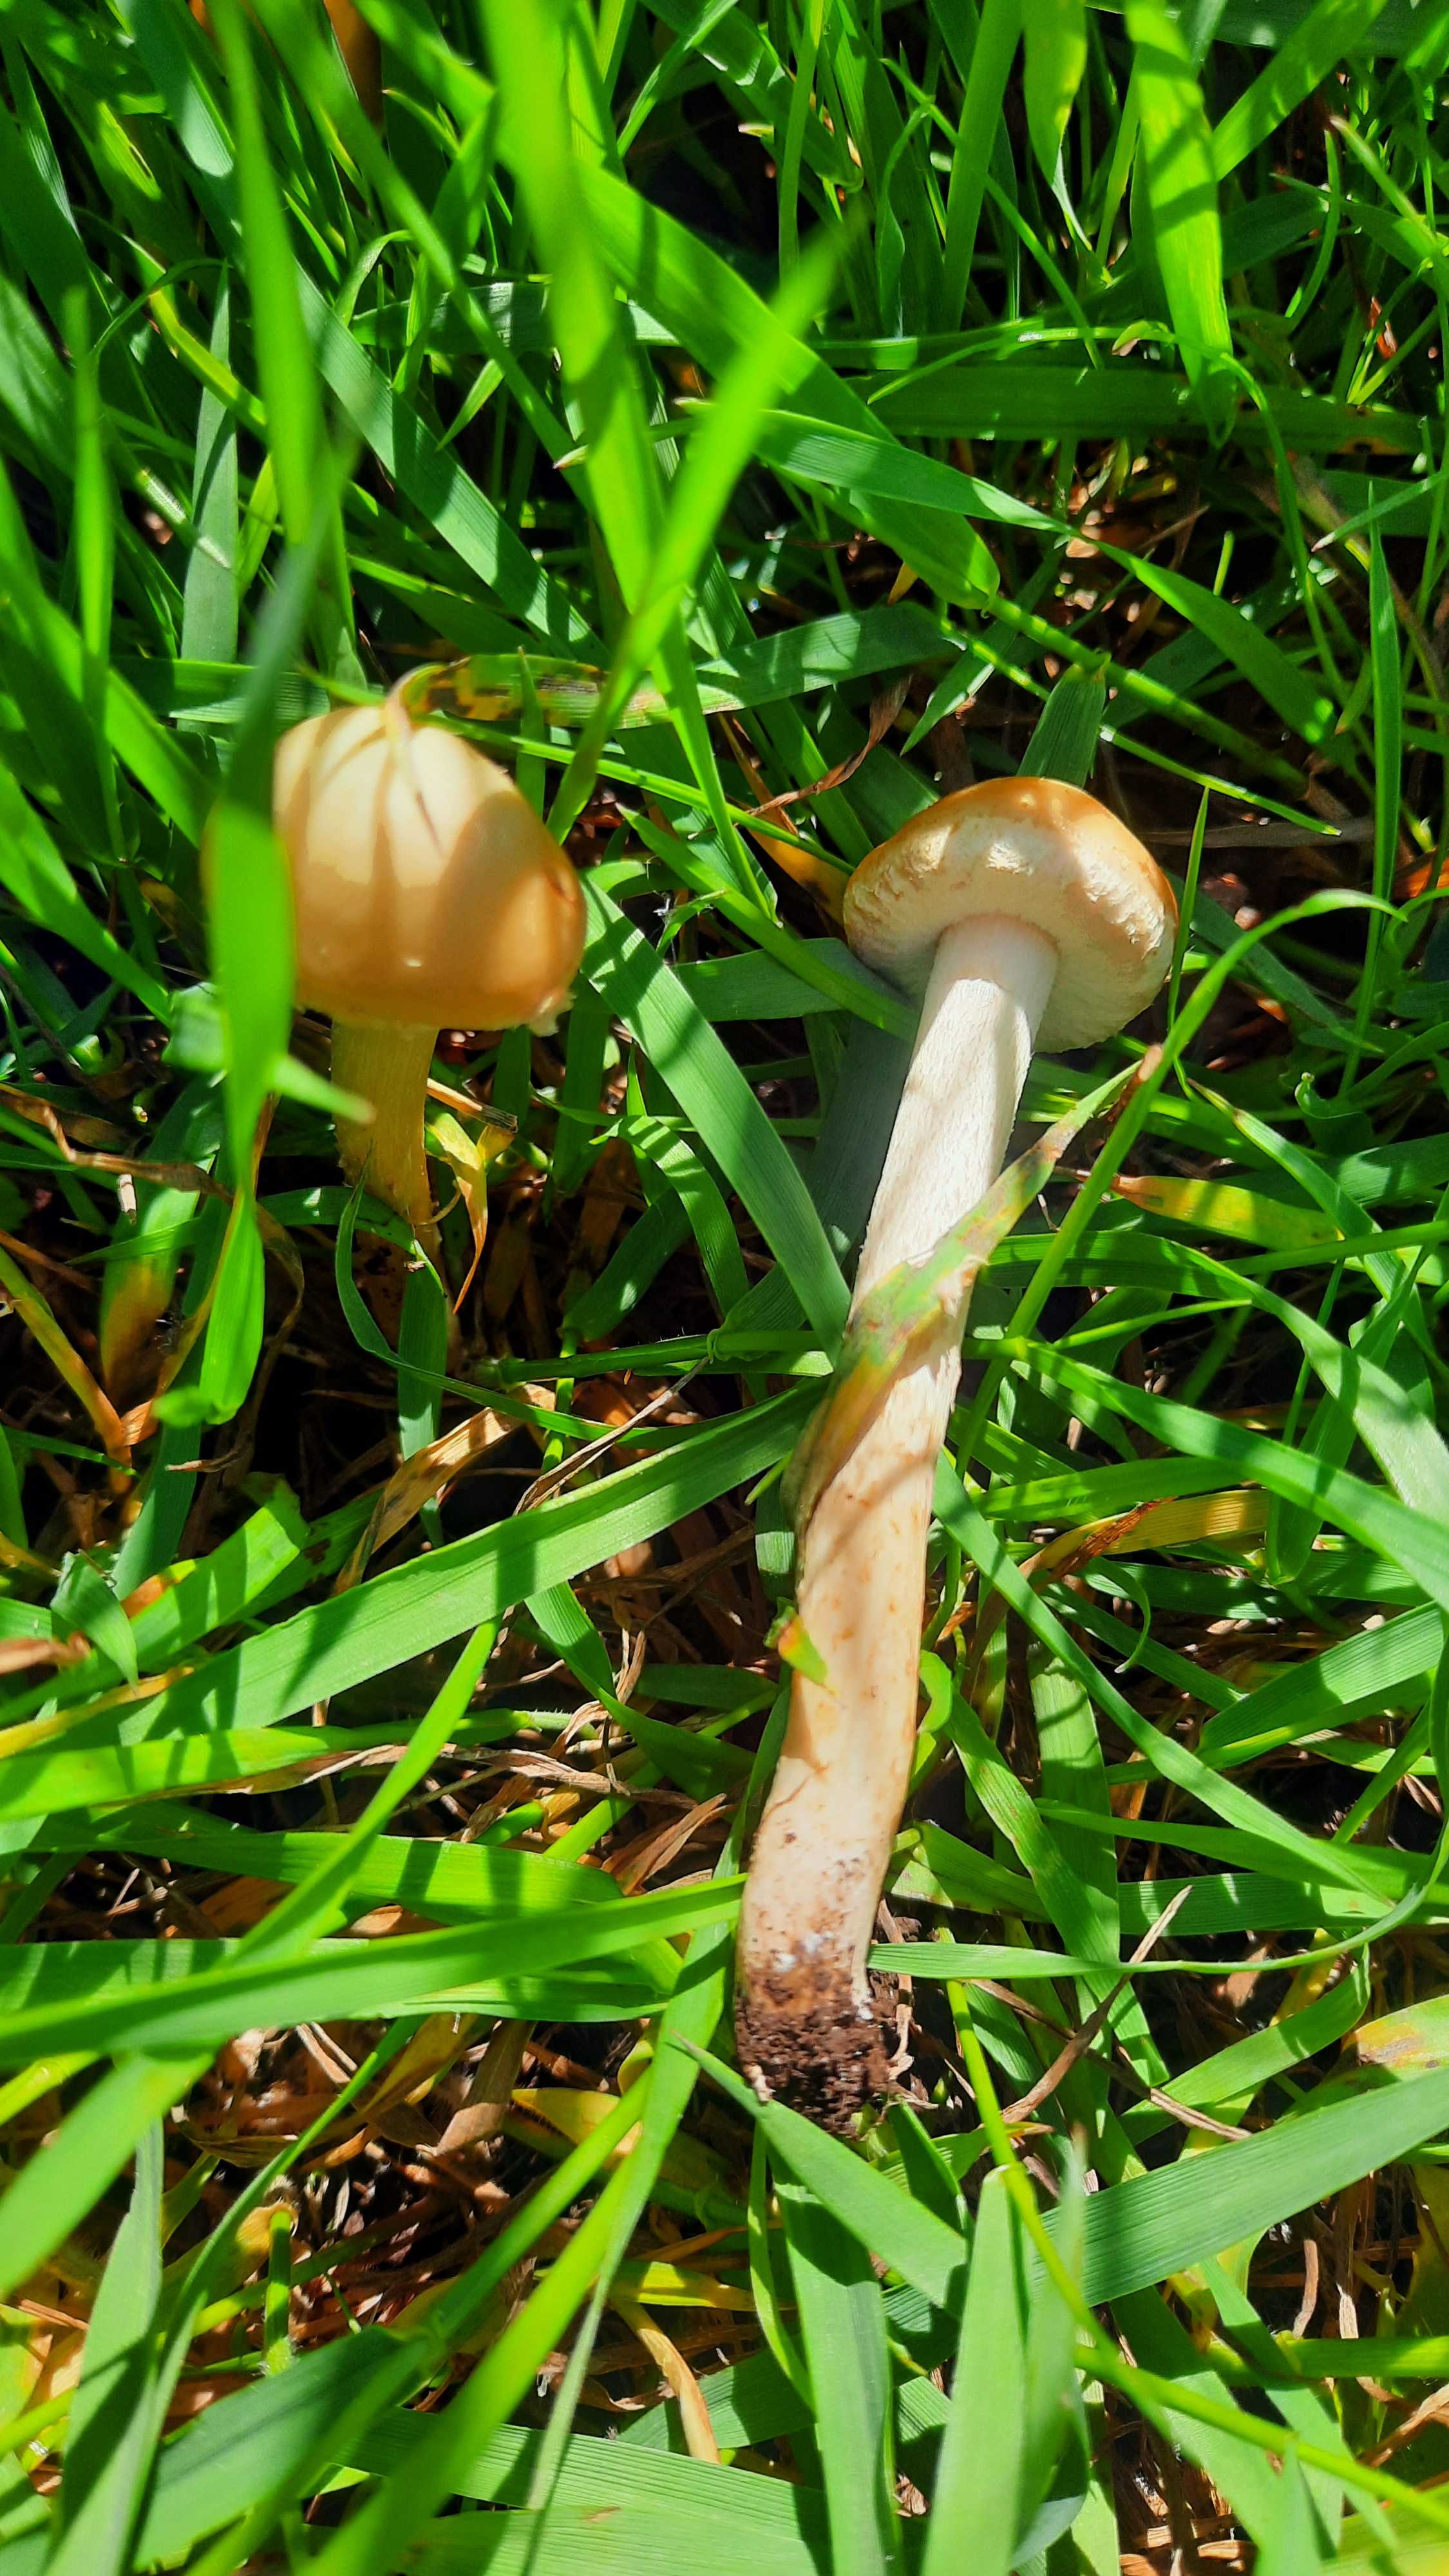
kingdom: Fungi
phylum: Basidiomycota
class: Agaricomycetes
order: Agaricales
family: Strophariaceae
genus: Agrocybe
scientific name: Agrocybe
